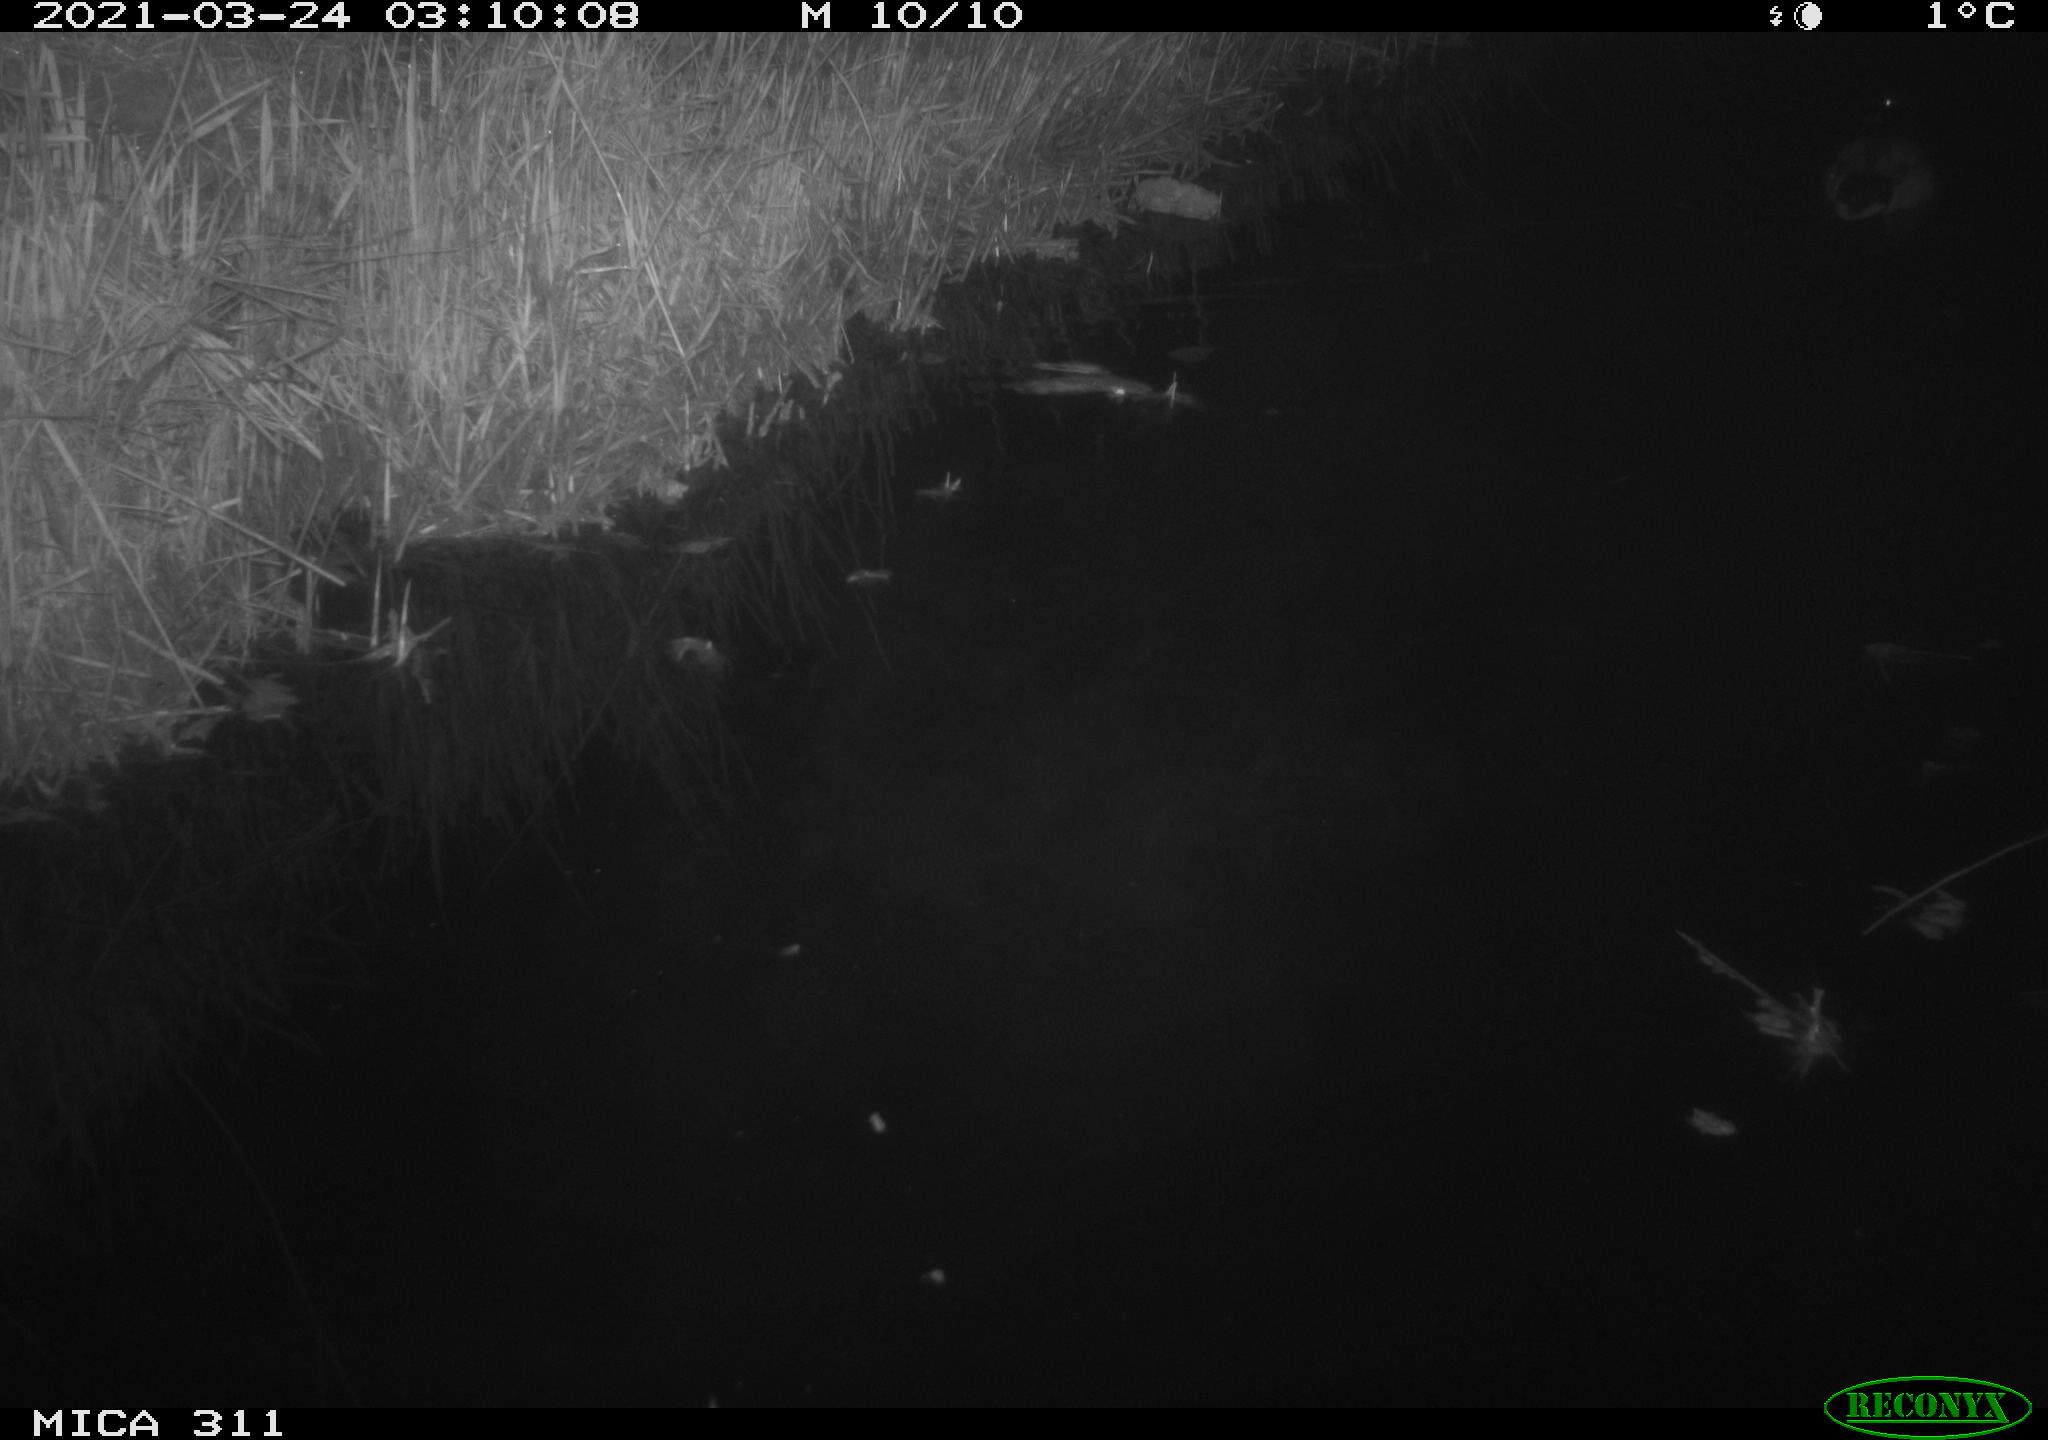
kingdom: Animalia
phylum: Chordata
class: Aves
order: Anseriformes
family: Anatidae
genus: Anas
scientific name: Anas platyrhynchos
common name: Mallard
